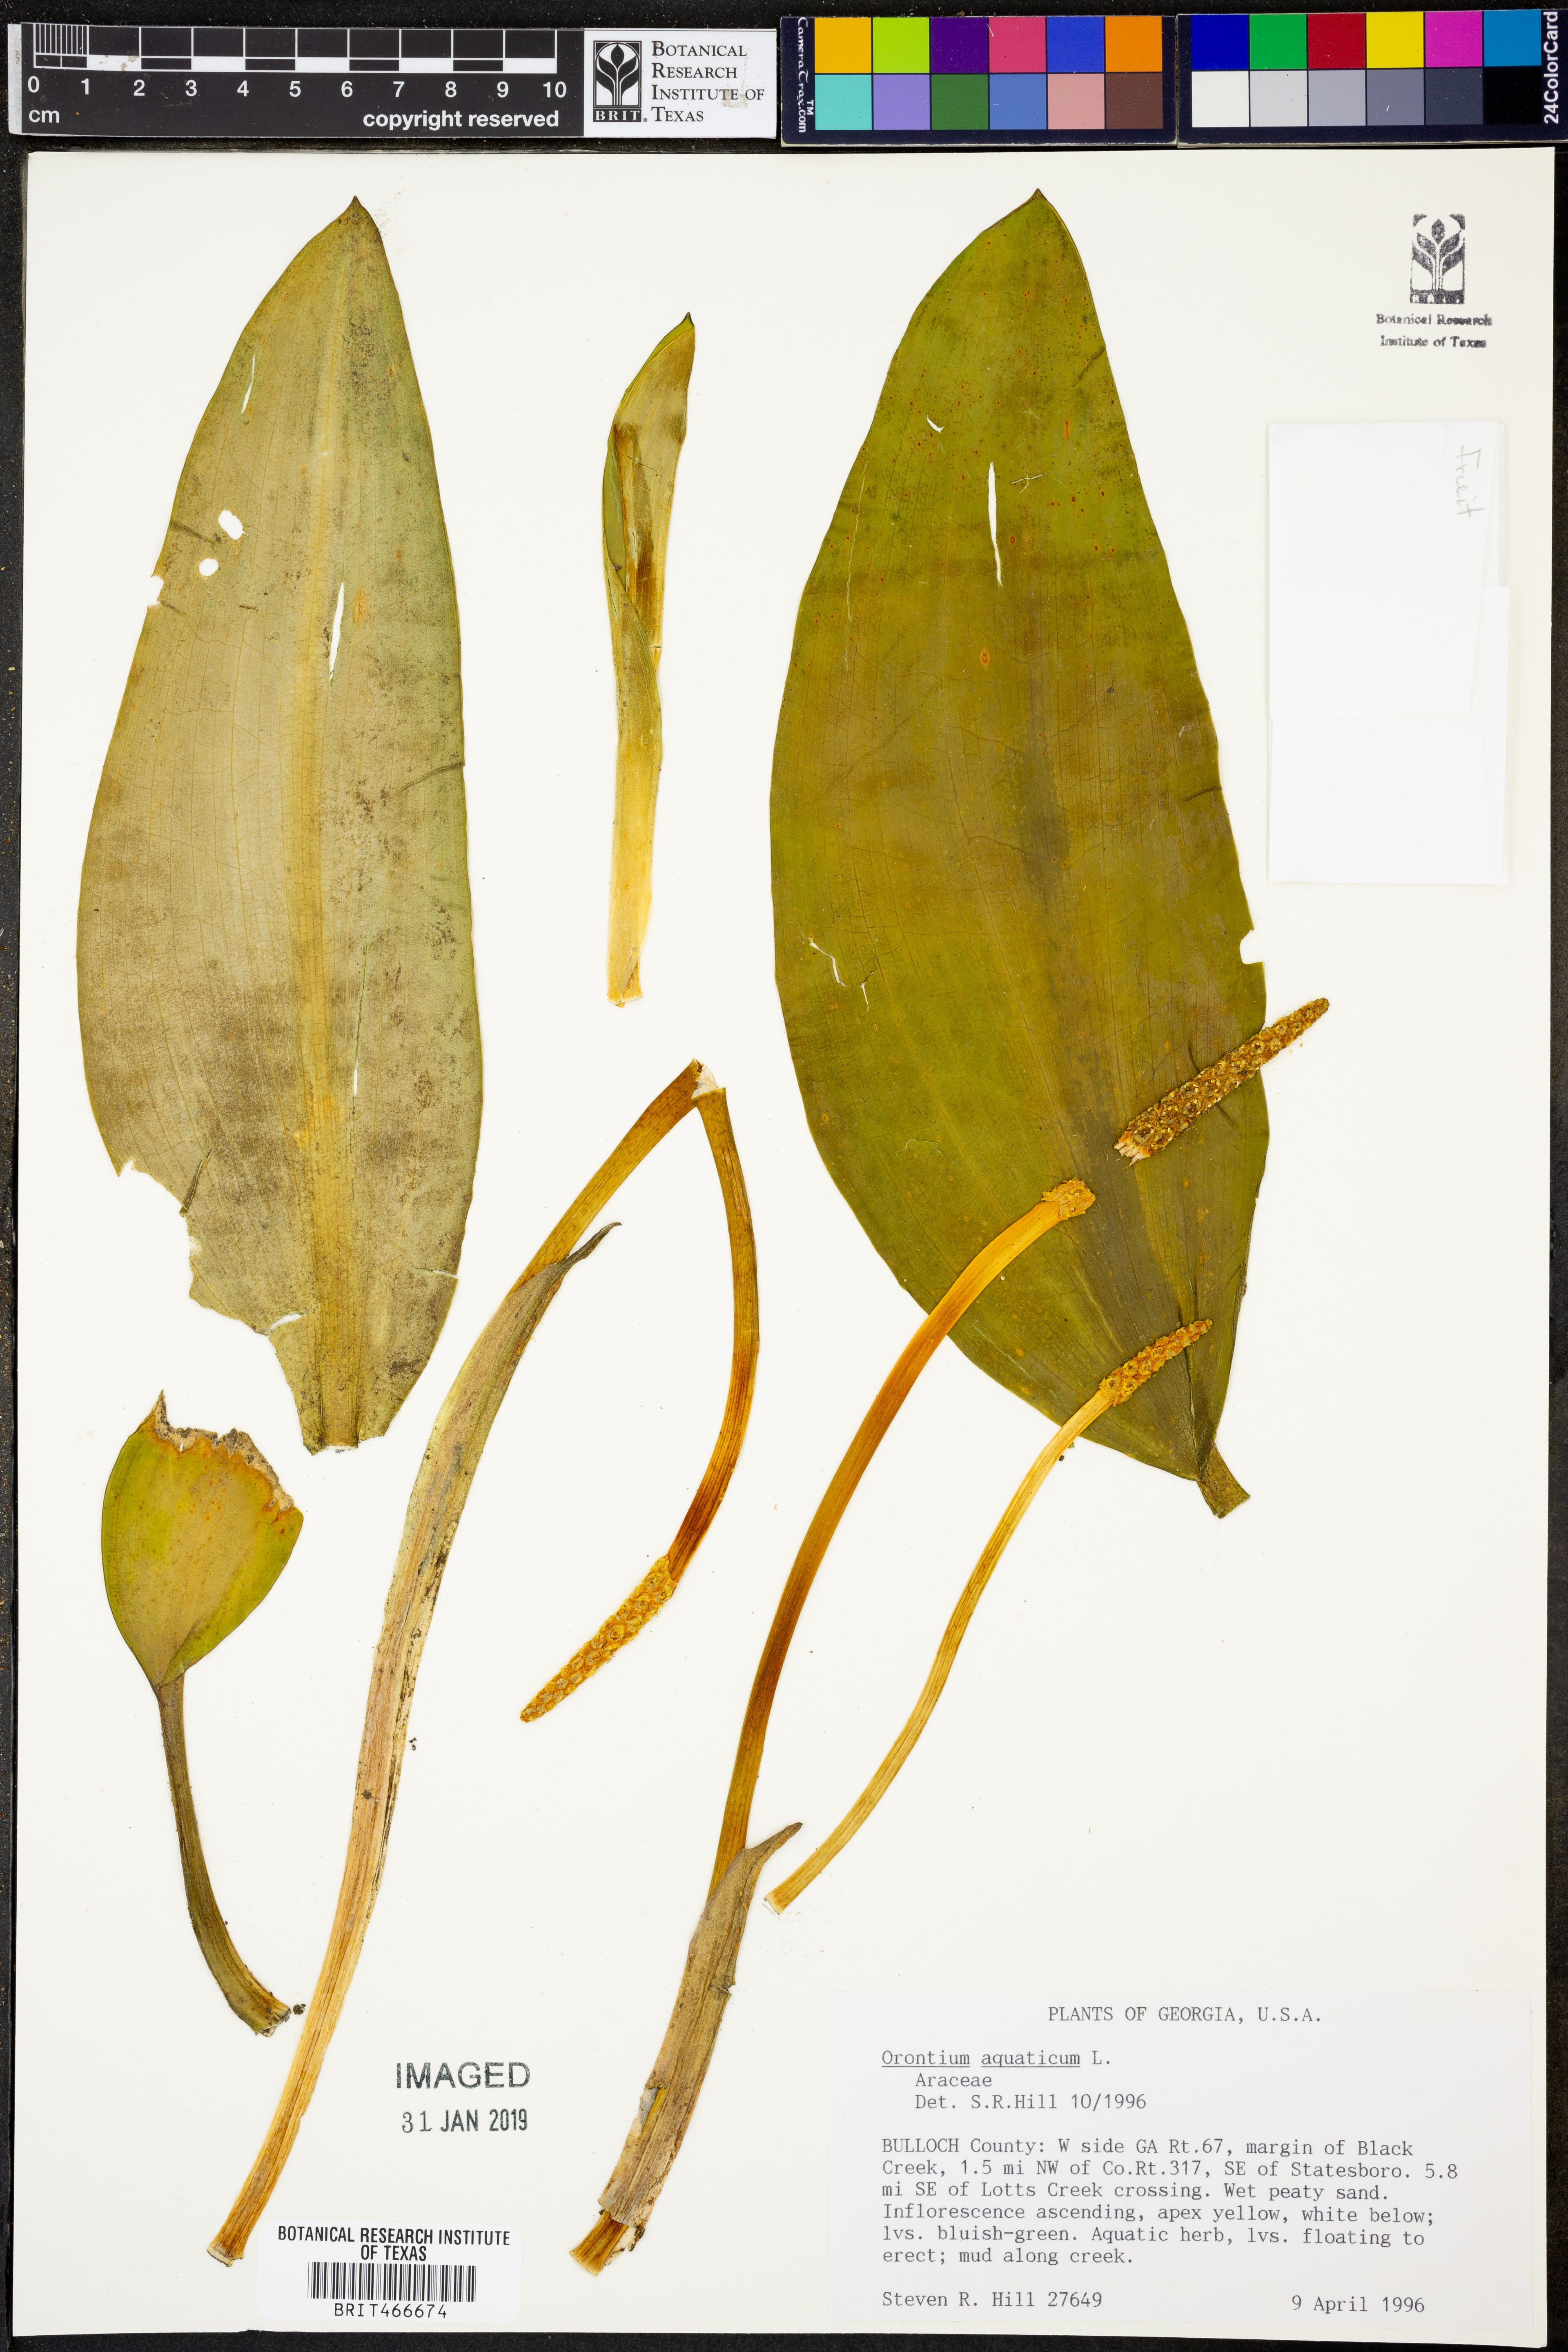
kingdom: Plantae
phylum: Tracheophyta
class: Liliopsida
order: Alismatales
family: Araceae
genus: Orontium
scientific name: Orontium aquaticum
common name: Golden-club
